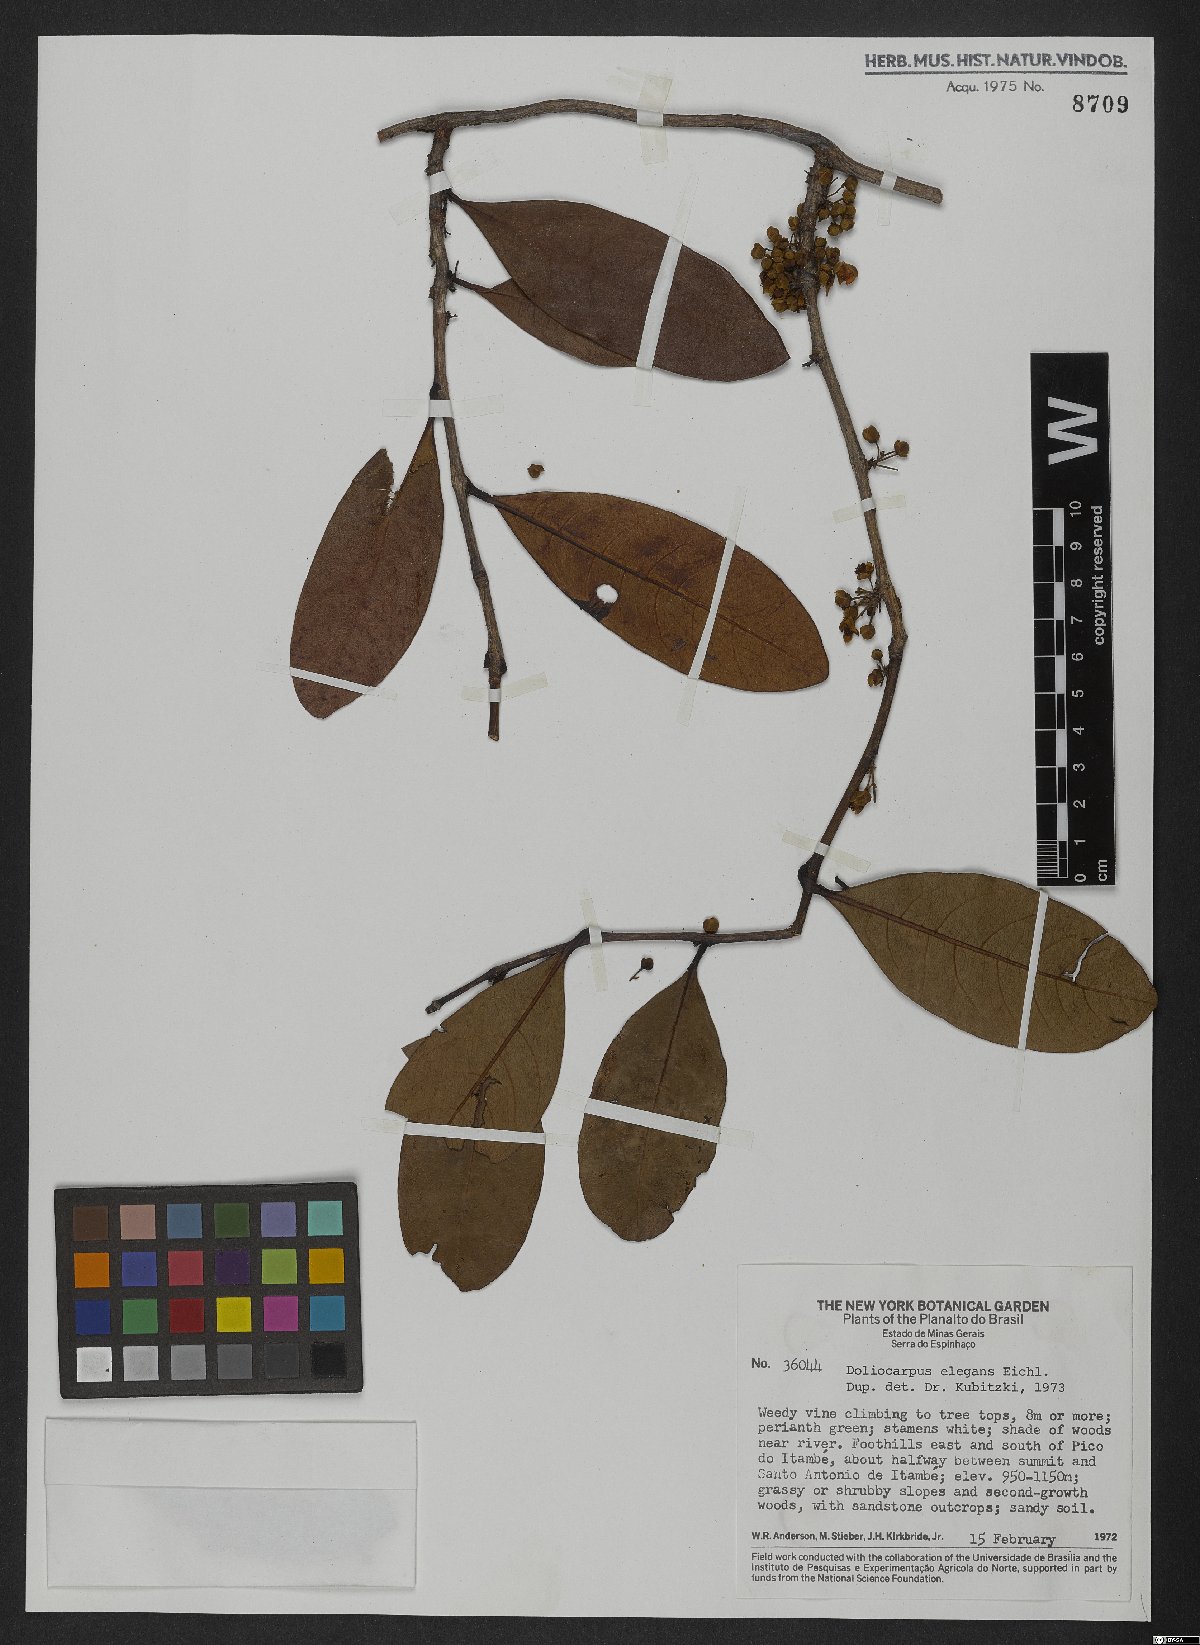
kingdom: Plantae
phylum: Tracheophyta
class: Magnoliopsida
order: Dilleniales
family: Dilleniaceae
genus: Doliocarpus
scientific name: Doliocarpus elegans
